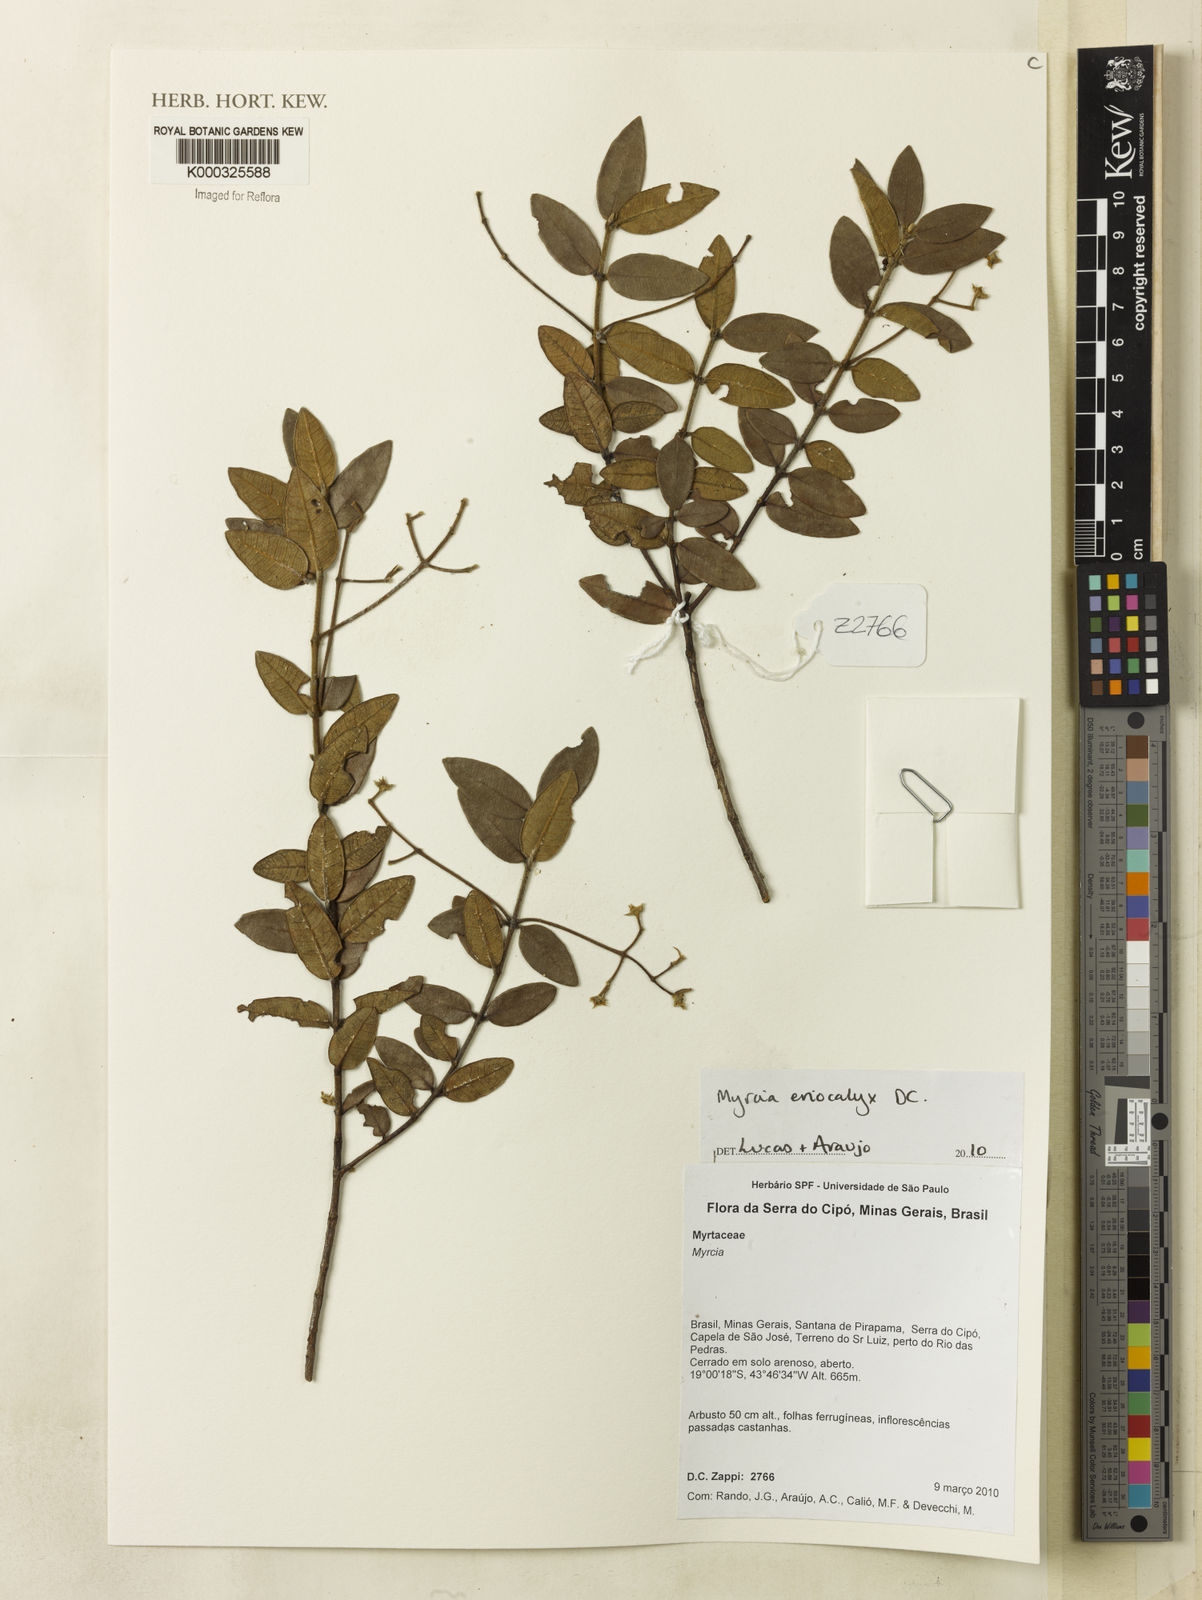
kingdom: Plantae
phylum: Tracheophyta
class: Magnoliopsida
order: Myrtales
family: Myrtaceae
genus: Myrcia
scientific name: Myrcia eriocalyx
